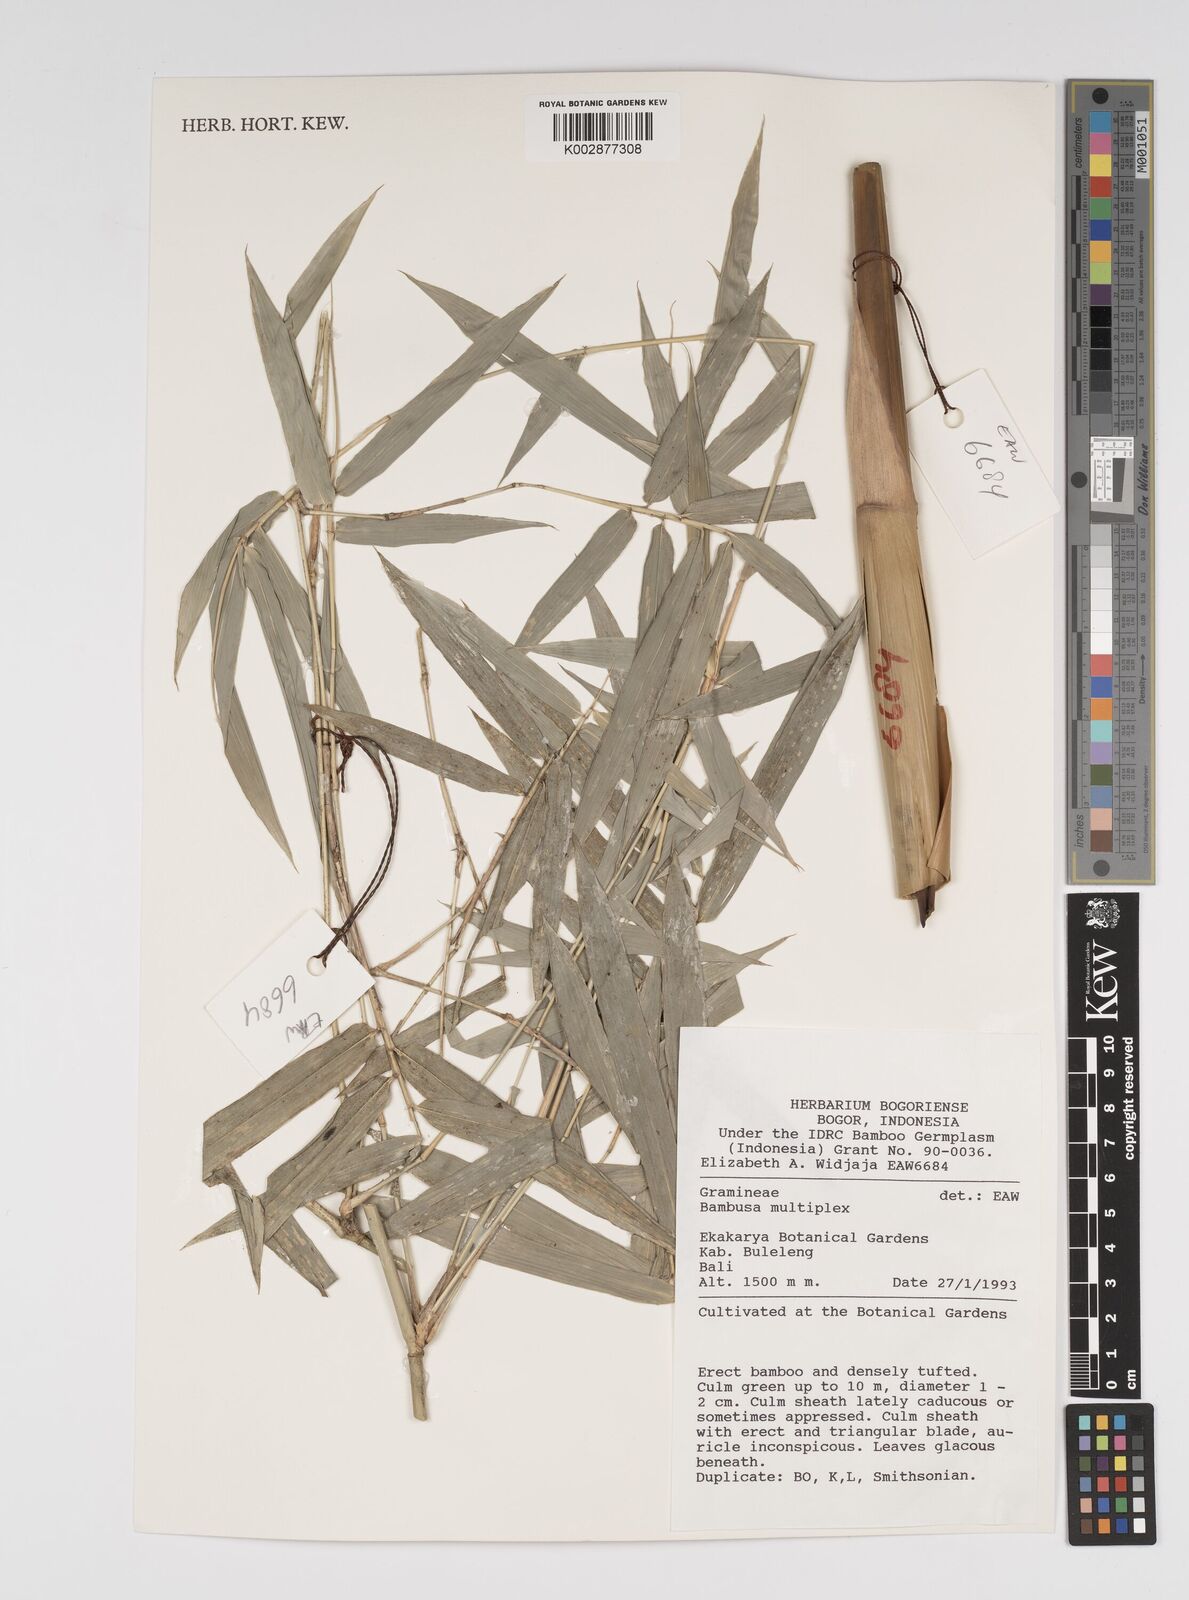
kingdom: Plantae
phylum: Tracheophyta
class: Liliopsida
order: Poales
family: Poaceae
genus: Bambusa
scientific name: Bambusa multiplex
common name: Hedge bamboo
